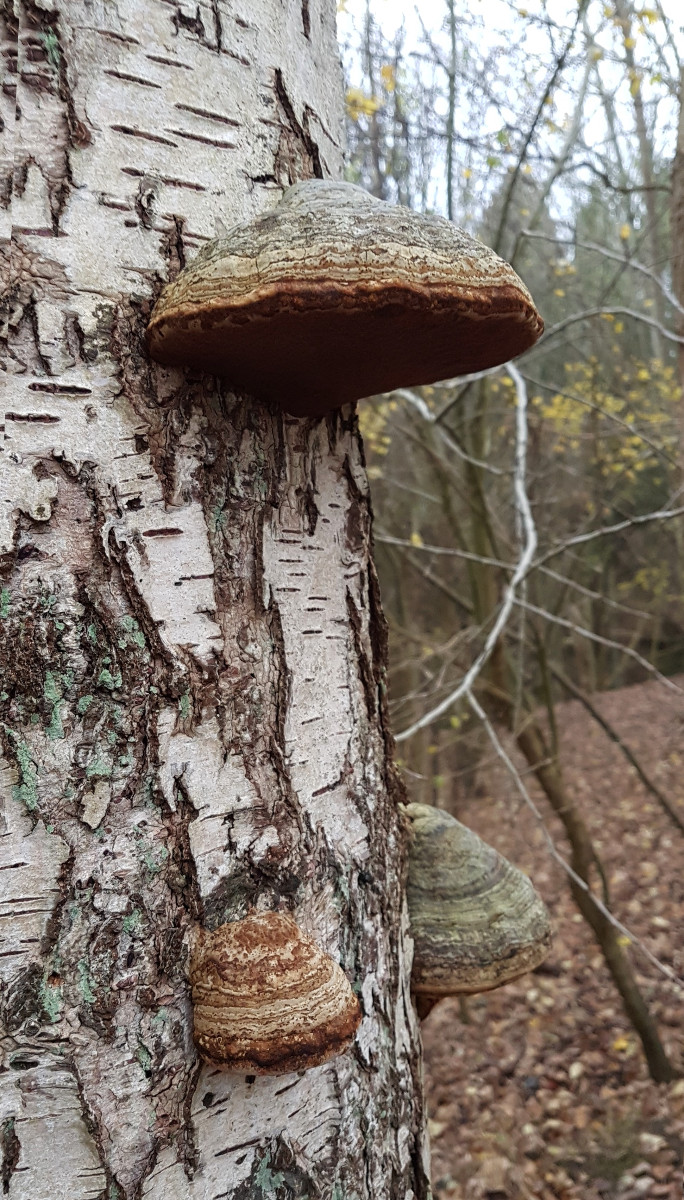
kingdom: Fungi
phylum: Basidiomycota
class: Agaricomycetes
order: Polyporales
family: Polyporaceae
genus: Fomes
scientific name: Fomes fomentarius
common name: tøndersvamp
